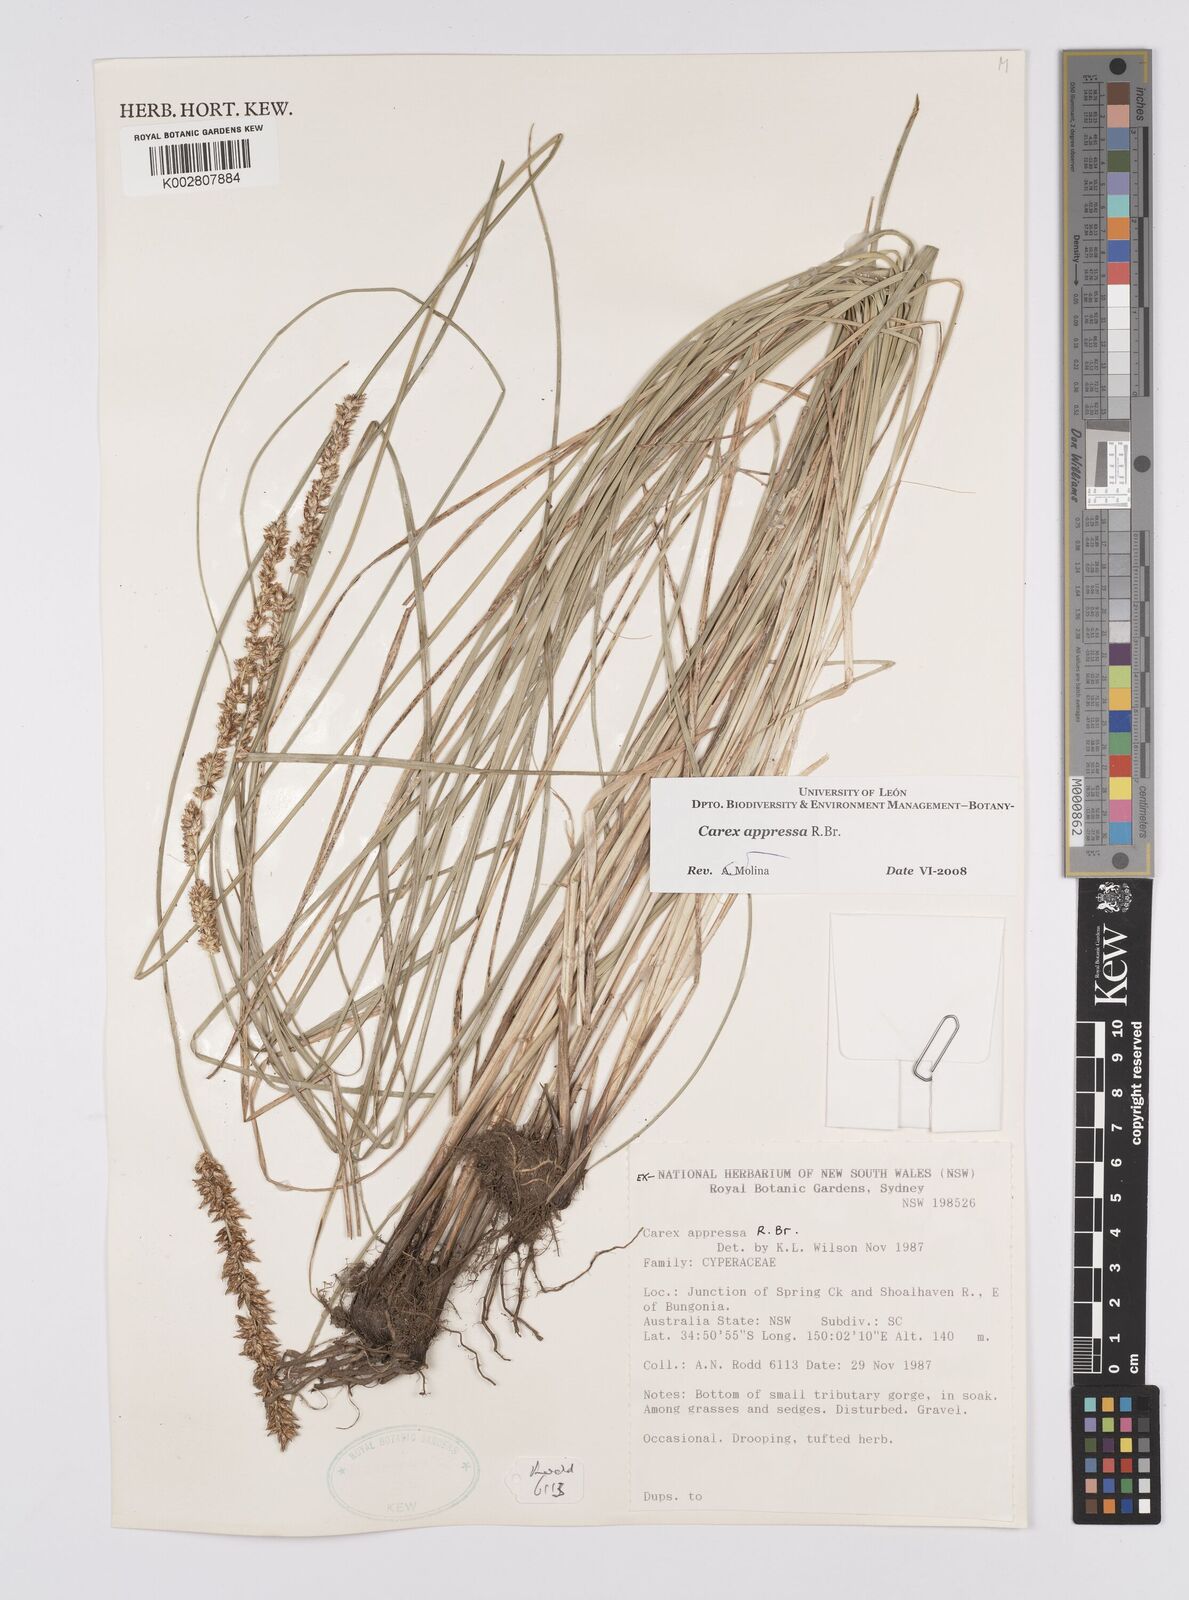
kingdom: Plantae
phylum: Tracheophyta
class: Liliopsida
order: Poales
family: Cyperaceae
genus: Carex
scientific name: Carex appressa
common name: Tussock sedge
